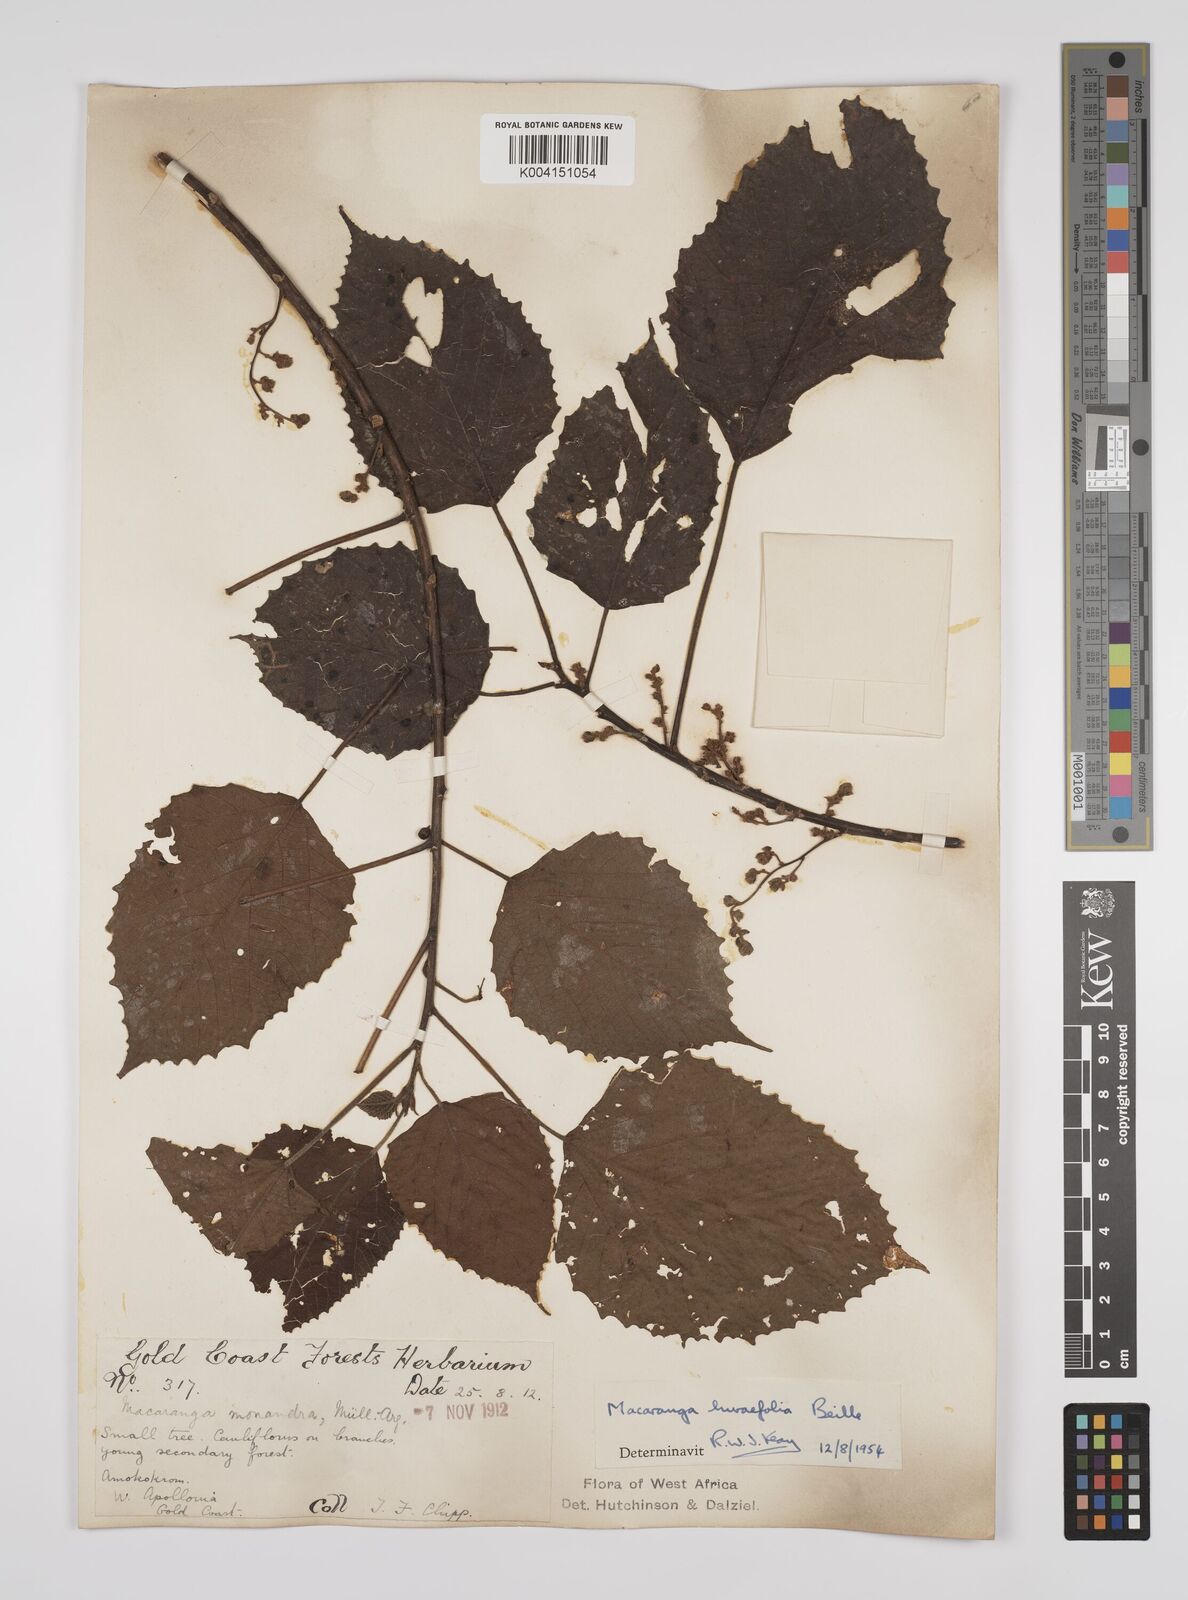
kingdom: Plantae
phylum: Tracheophyta
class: Magnoliopsida
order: Malpighiales
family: Euphorbiaceae
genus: Macaranga
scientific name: Macaranga hurifolia
